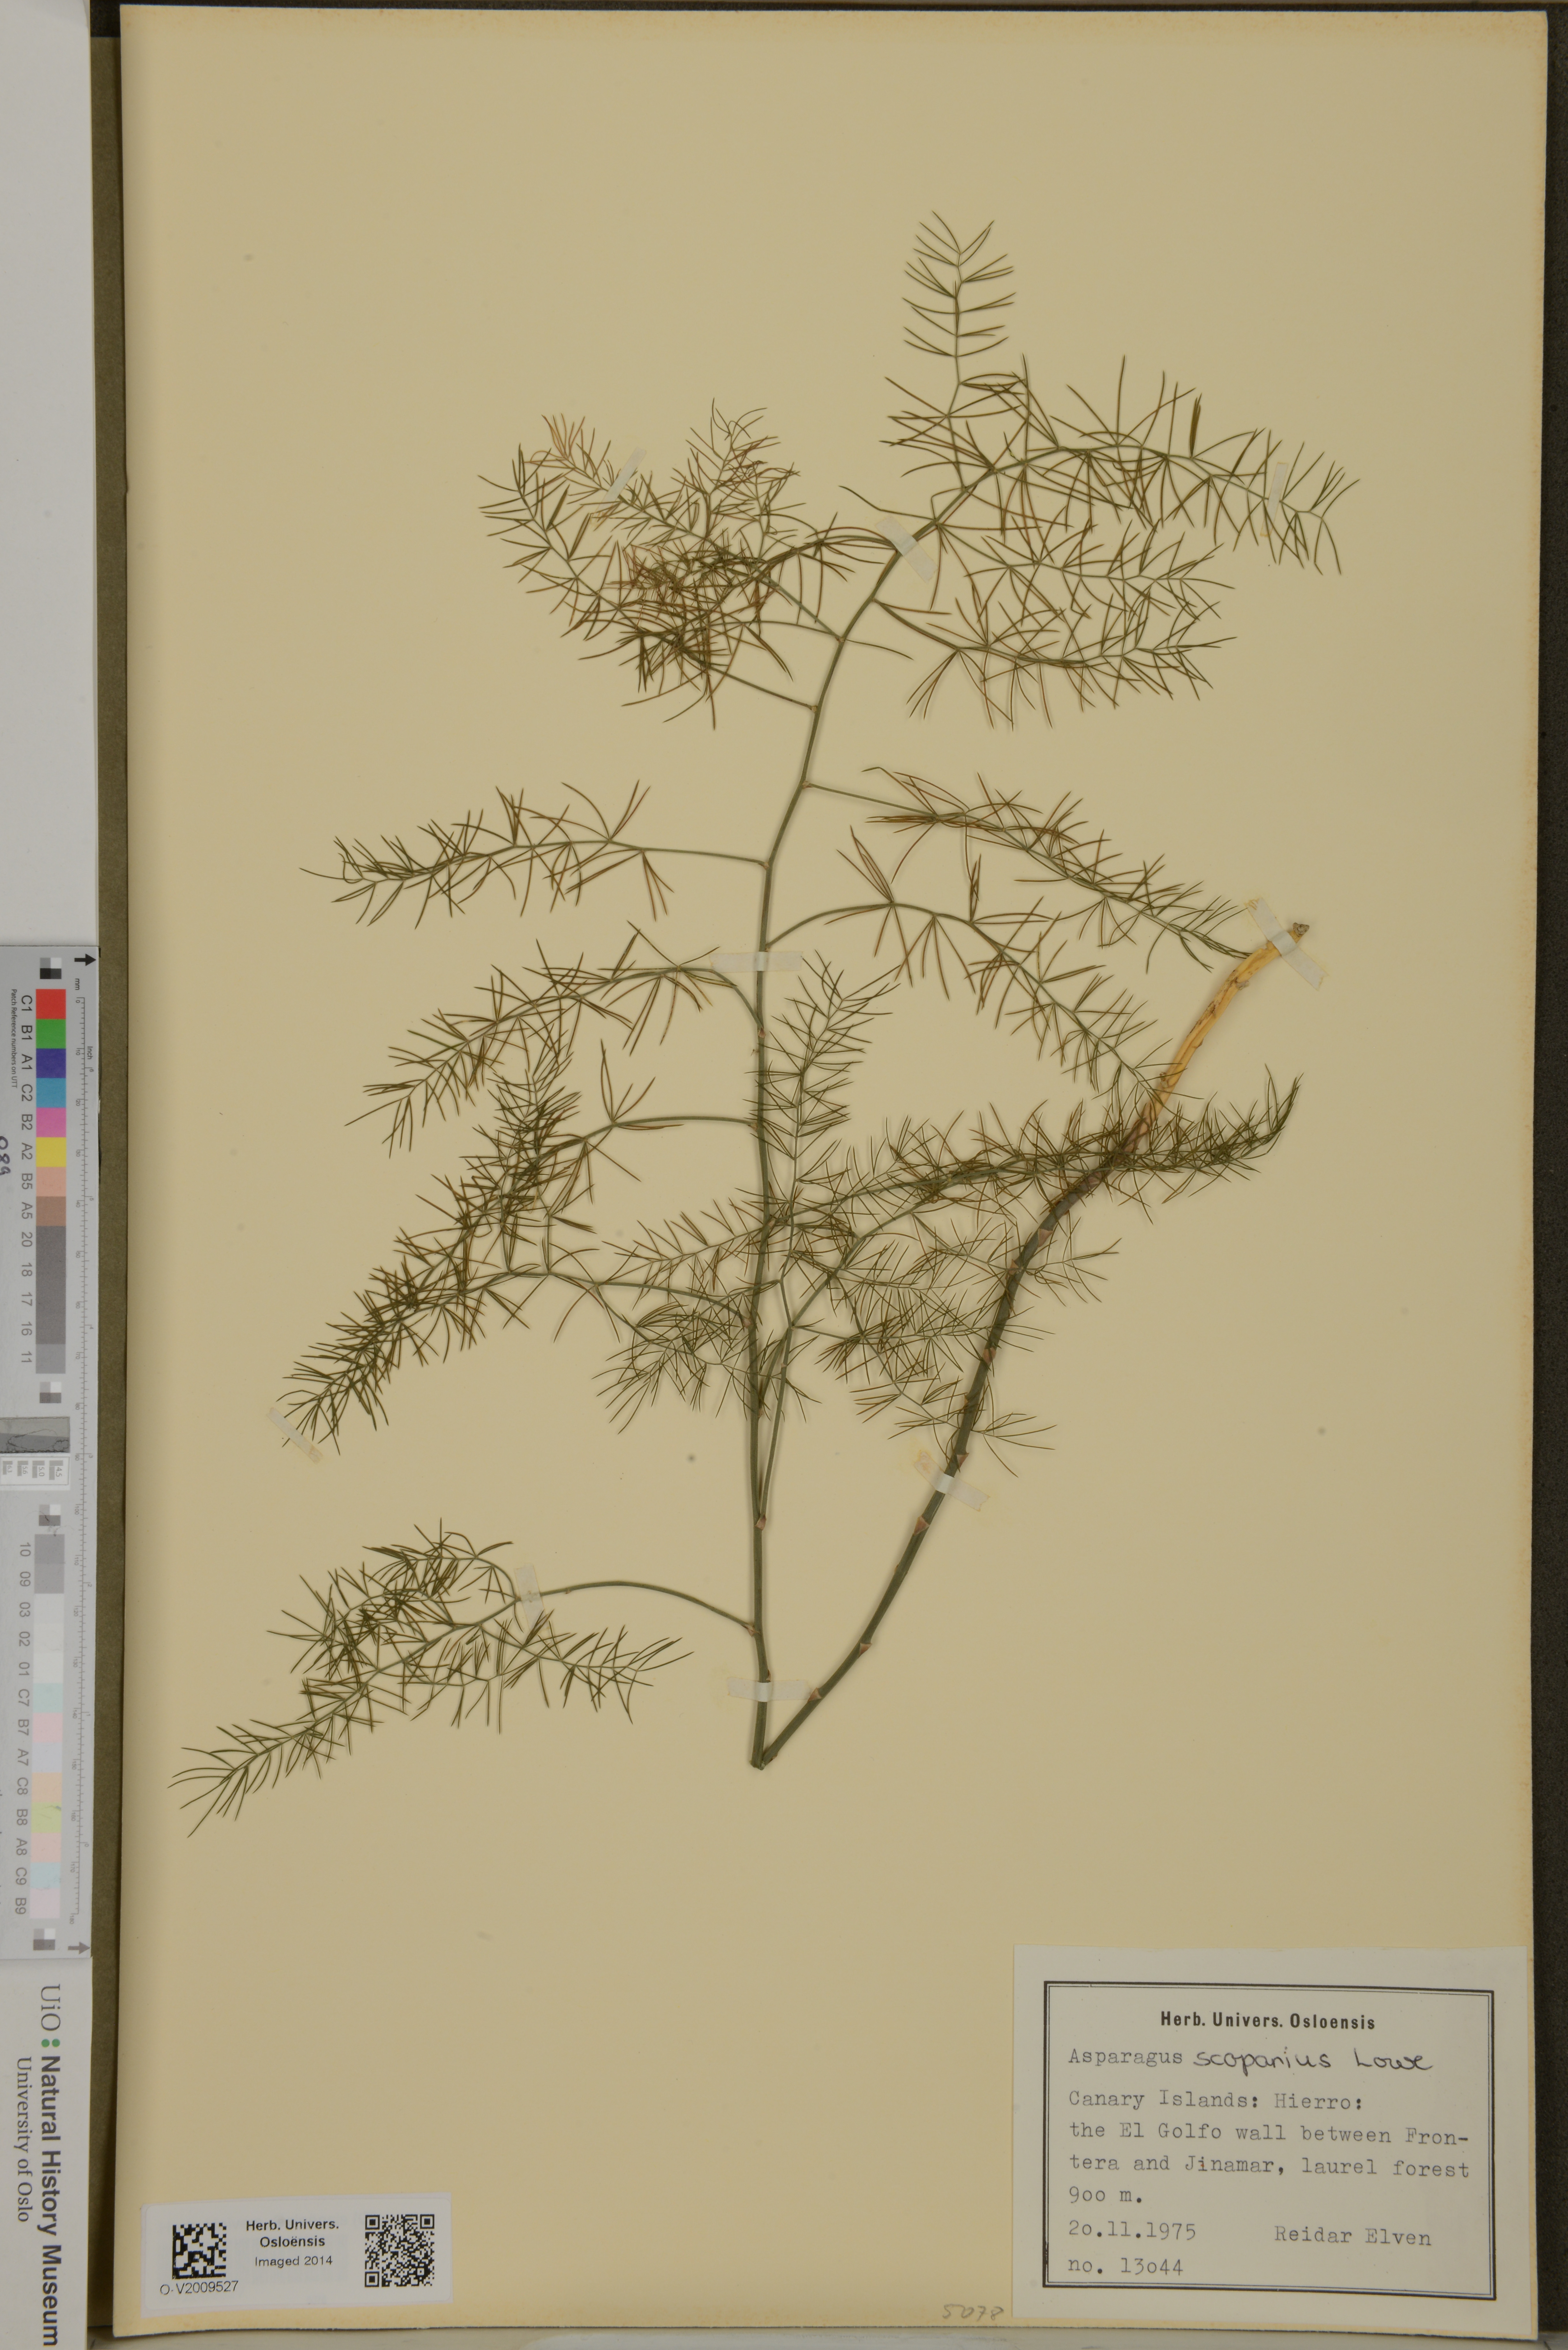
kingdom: Plantae
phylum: Tracheophyta
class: Liliopsida
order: Asparagales
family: Asparagaceae
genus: Asparagus
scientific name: Asparagus scoparius
